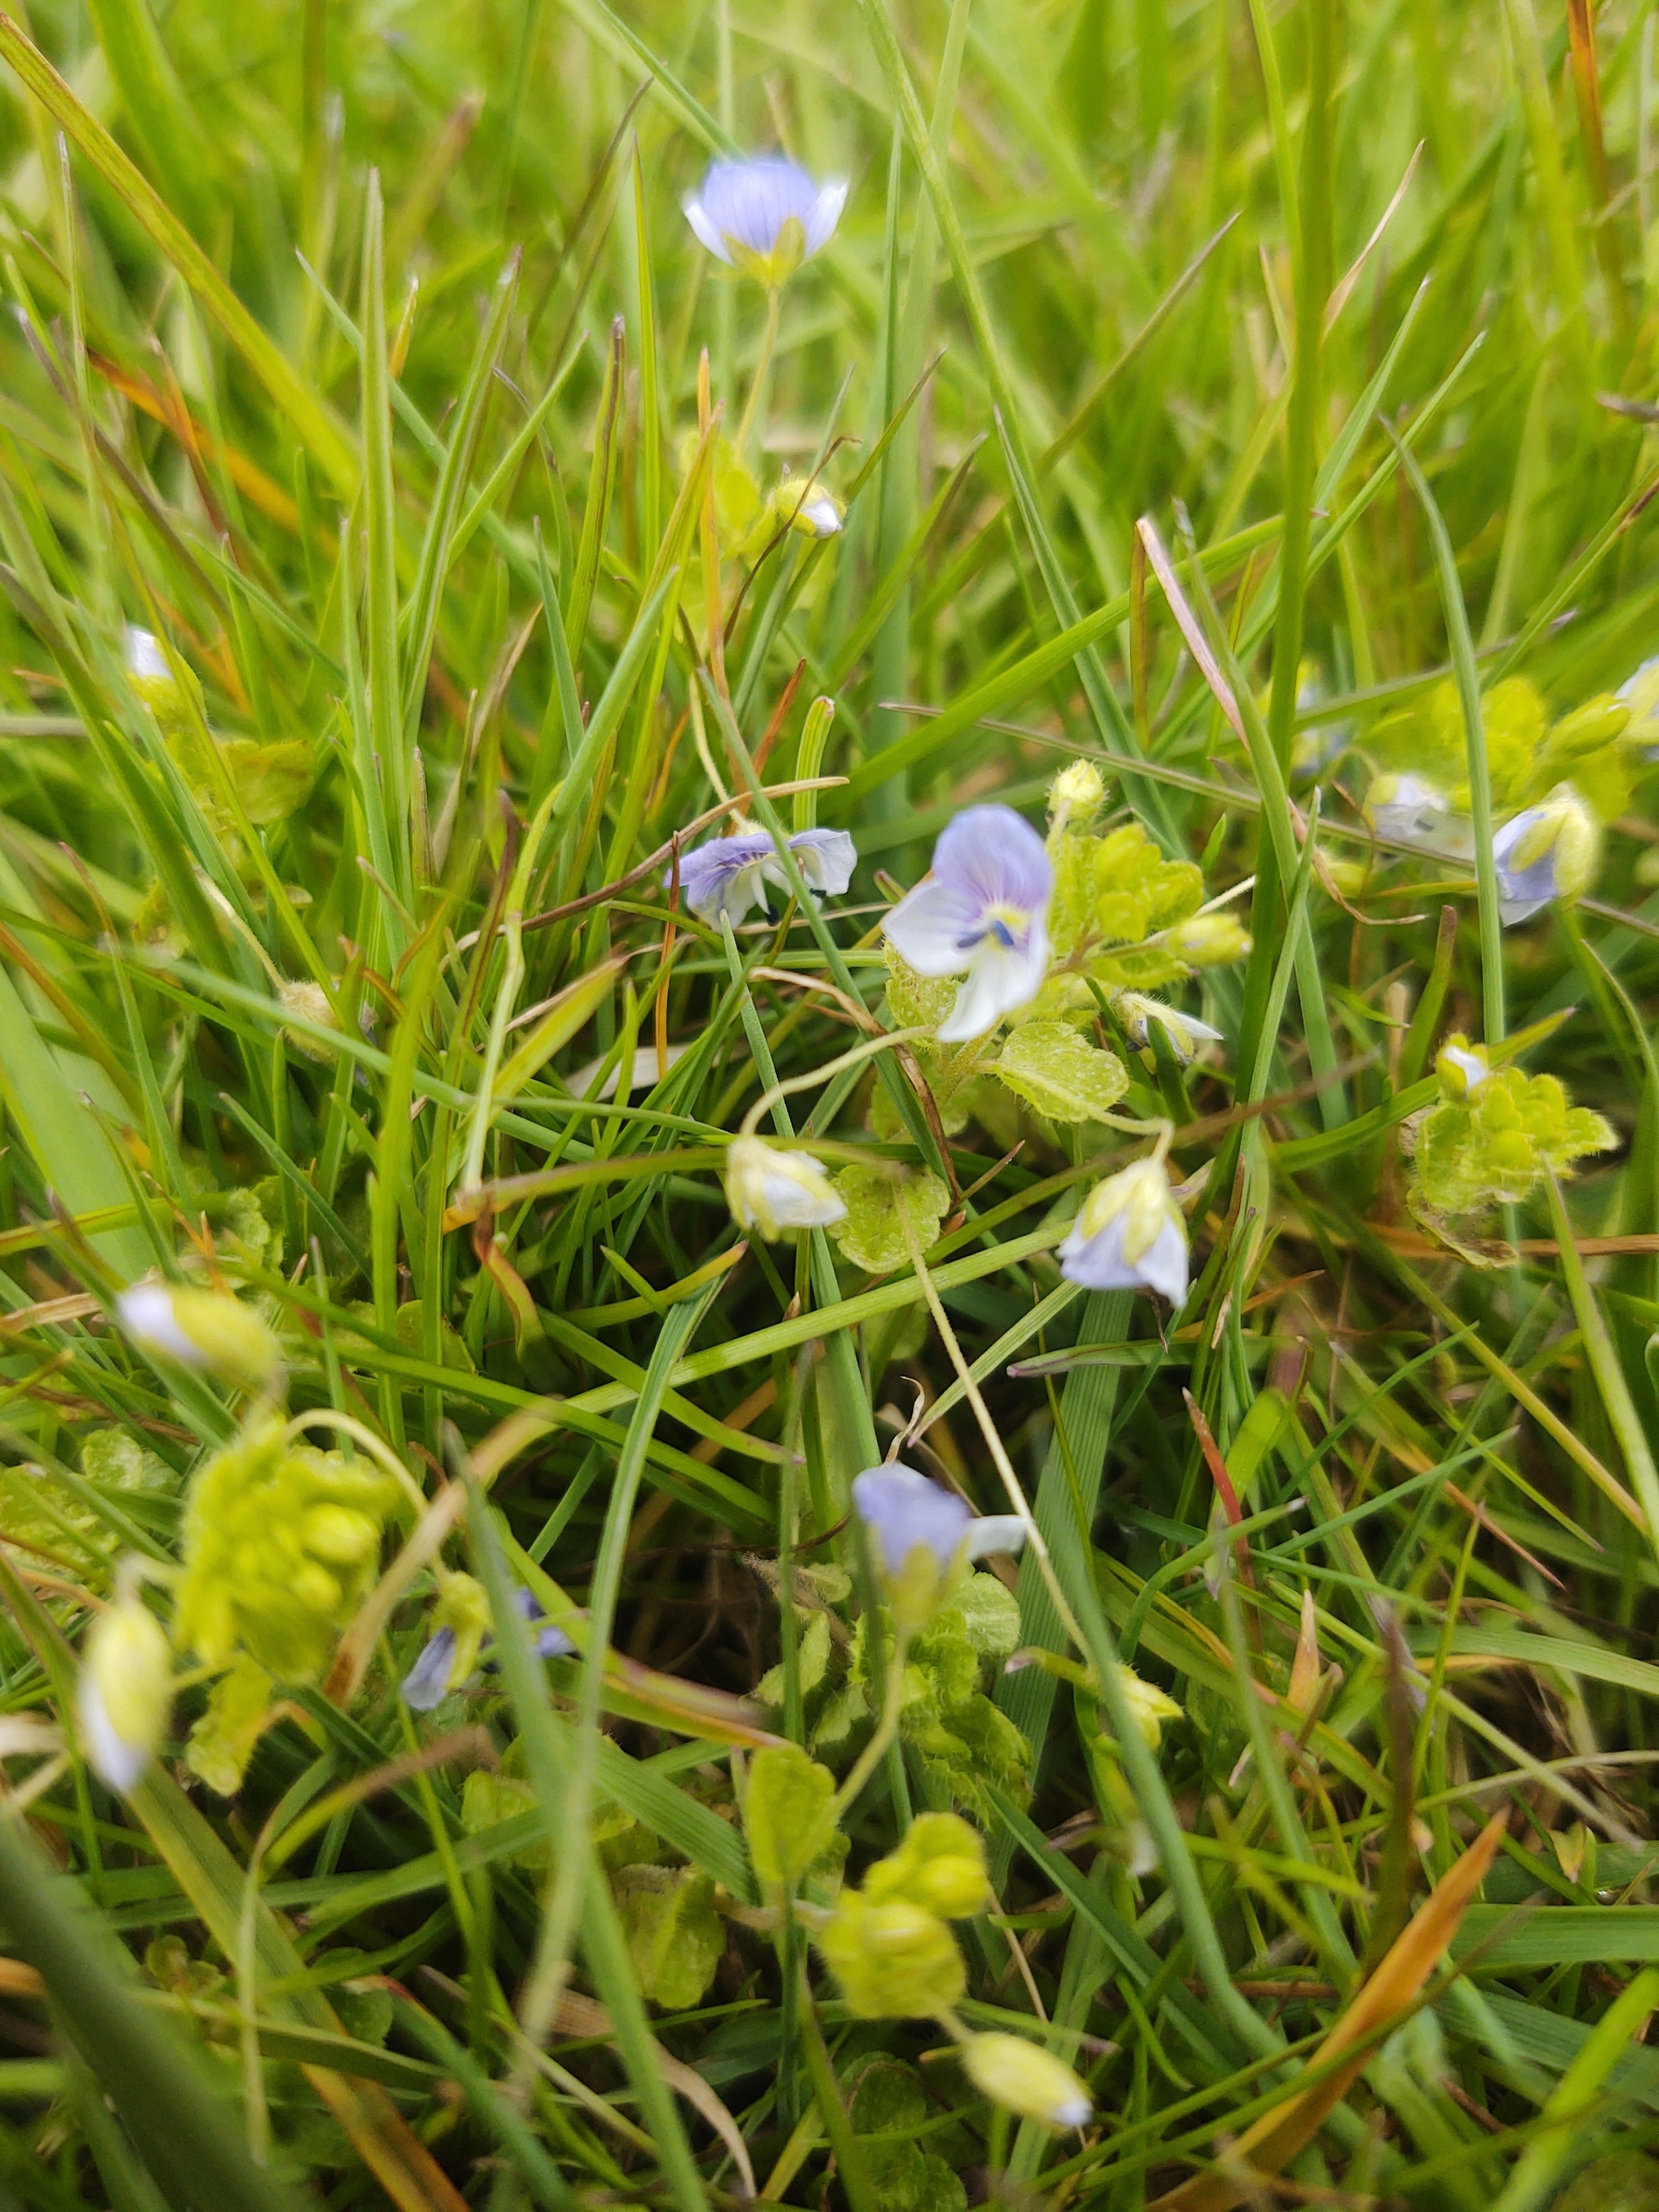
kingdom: Plantae
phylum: Tracheophyta
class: Magnoliopsida
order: Lamiales
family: Plantaginaceae
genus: Veronica
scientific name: Veronica filiformis
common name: Tråd-ærenpris
